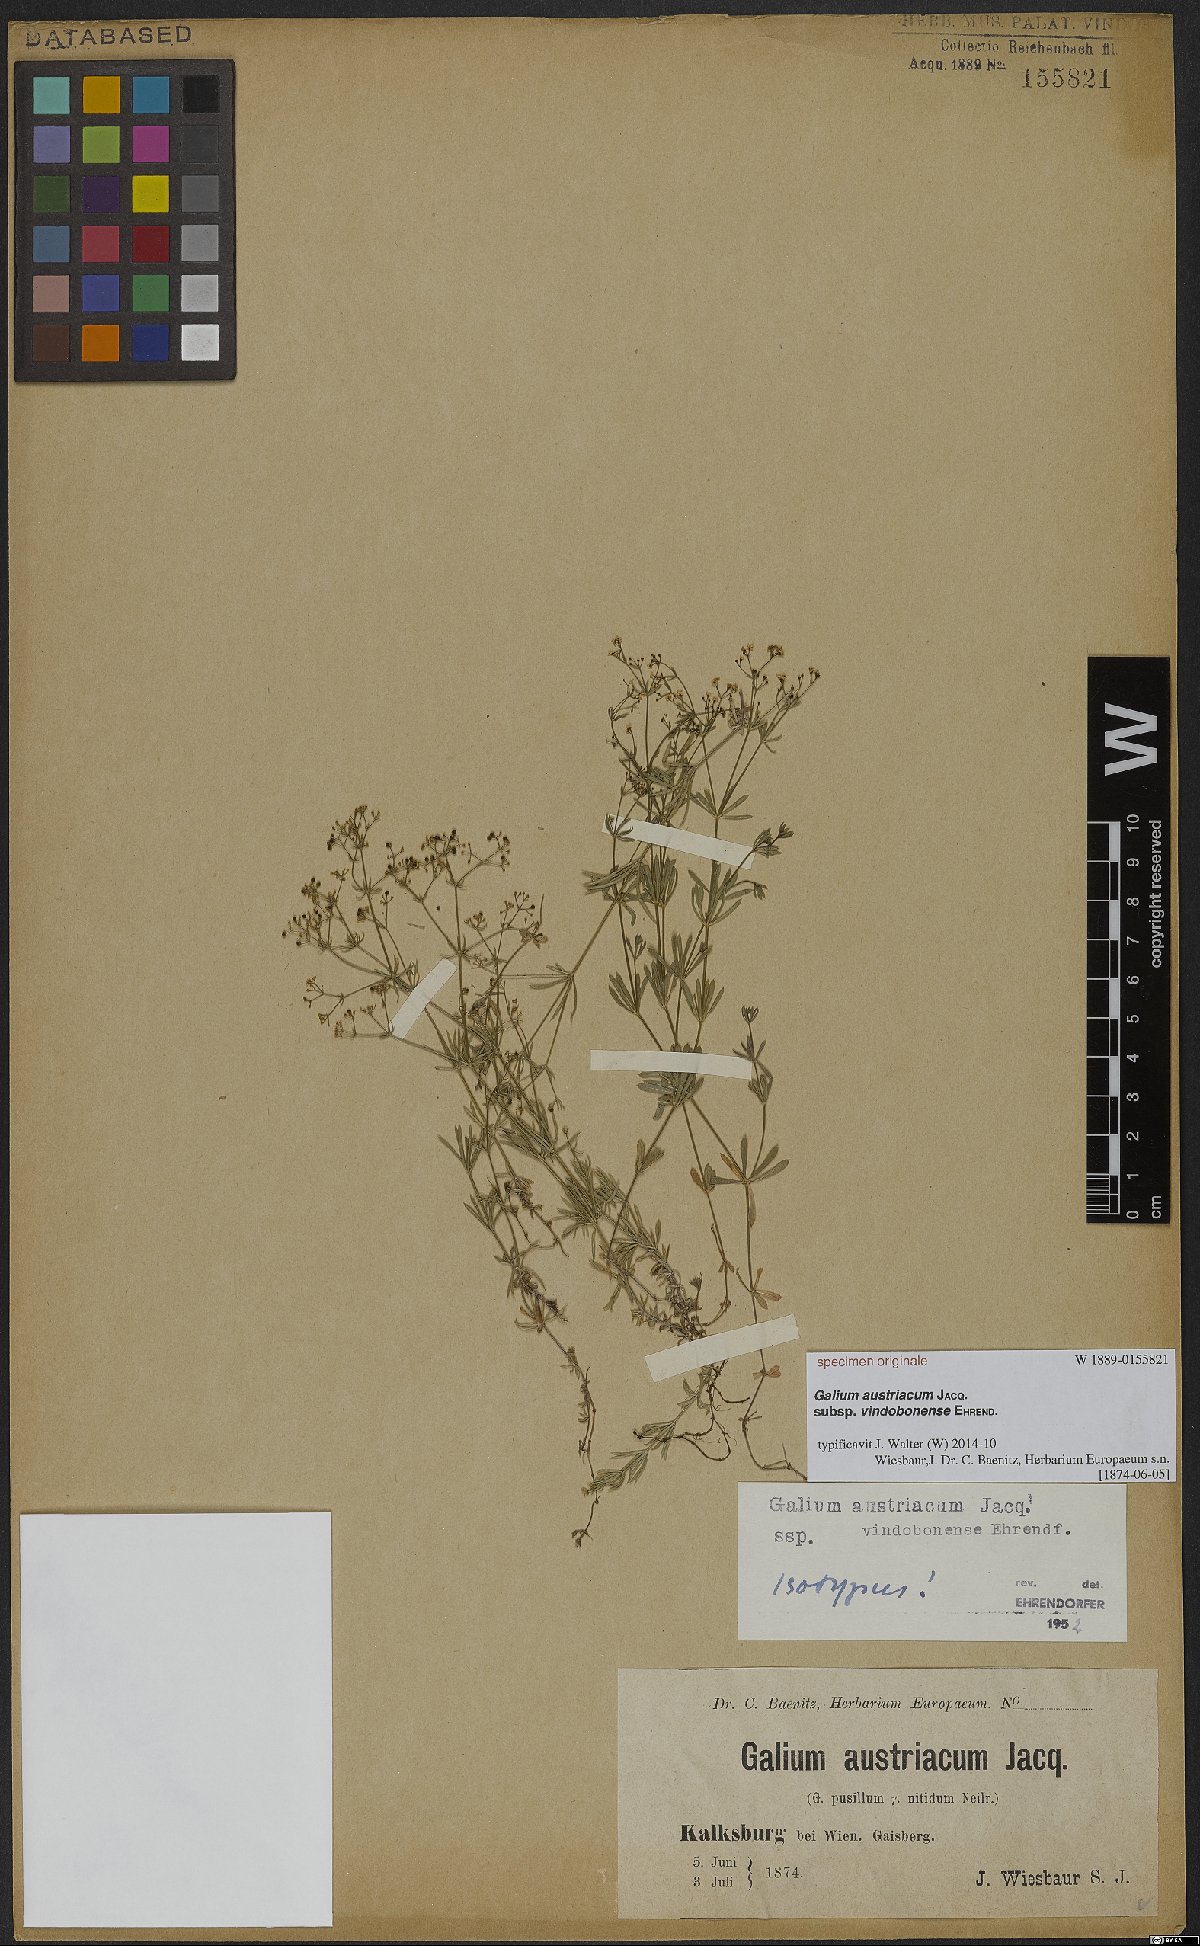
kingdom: Plantae
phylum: Tracheophyta
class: Magnoliopsida
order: Gentianales
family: Rubiaceae
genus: Galium
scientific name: Galium austriacum
